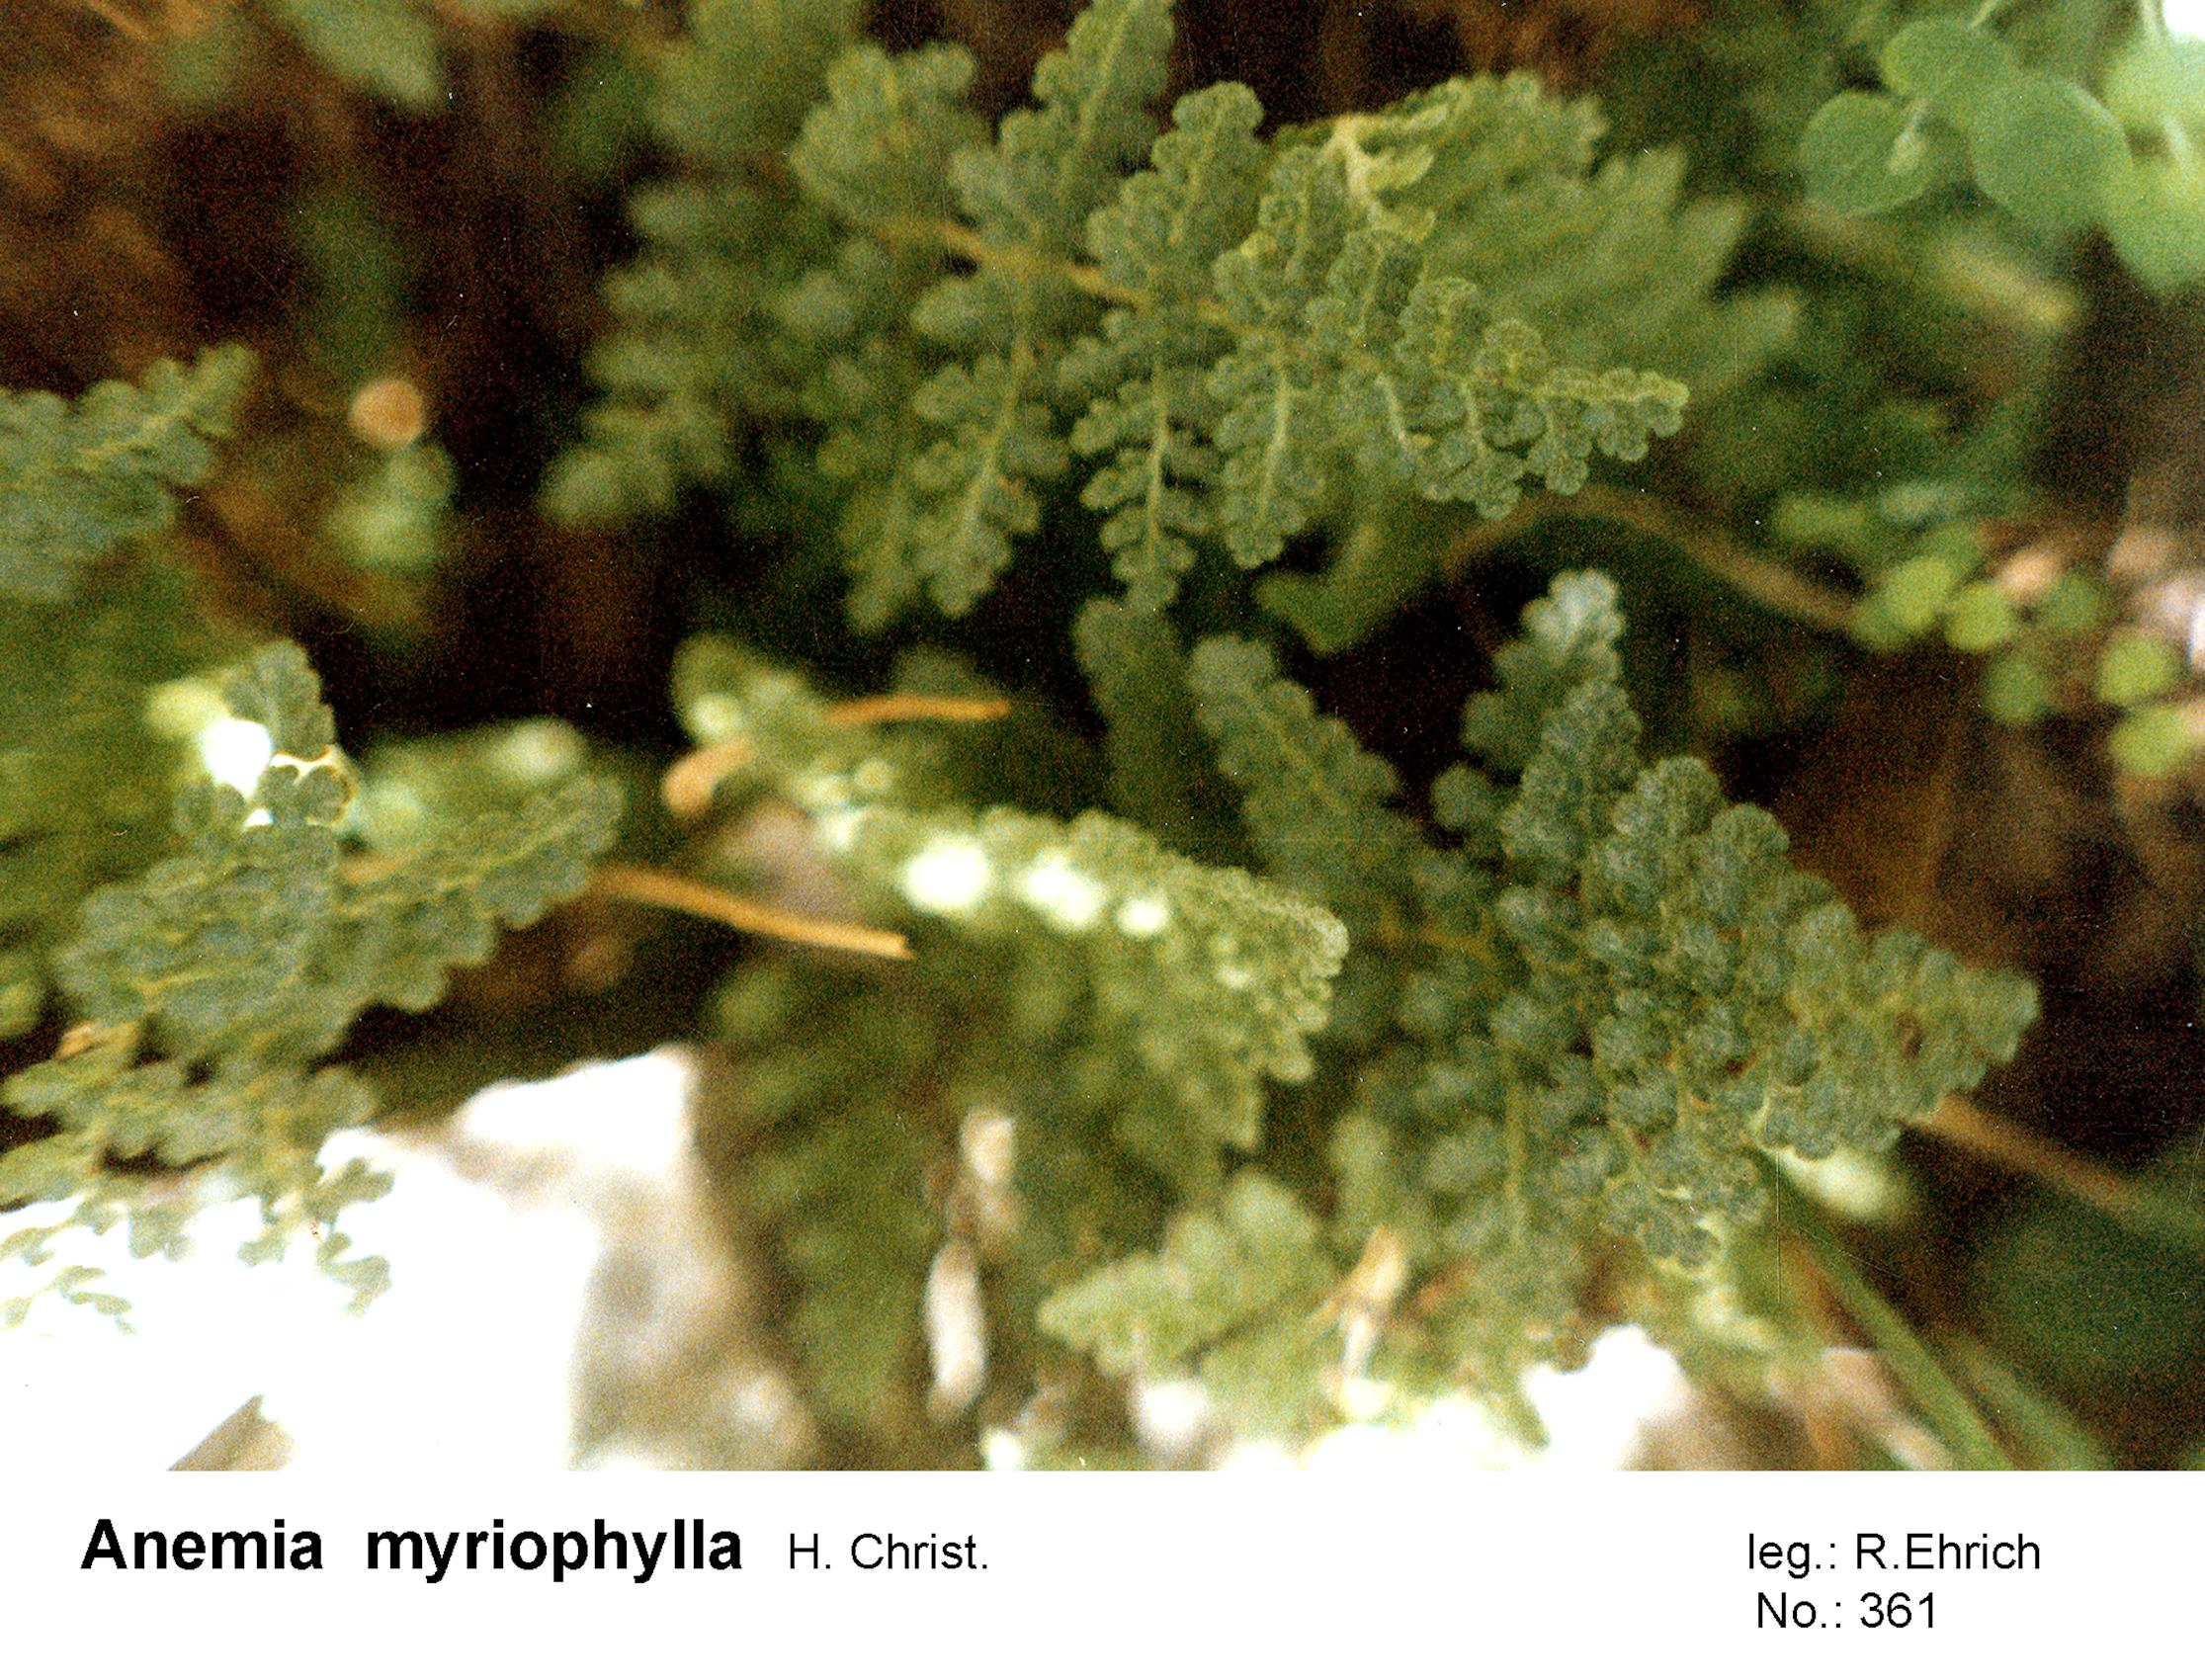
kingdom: Plantae
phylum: Tracheophyta
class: Polypodiopsida
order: Schizaeales
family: Anemiaceae
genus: Anemia
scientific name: Anemia myriophylla
